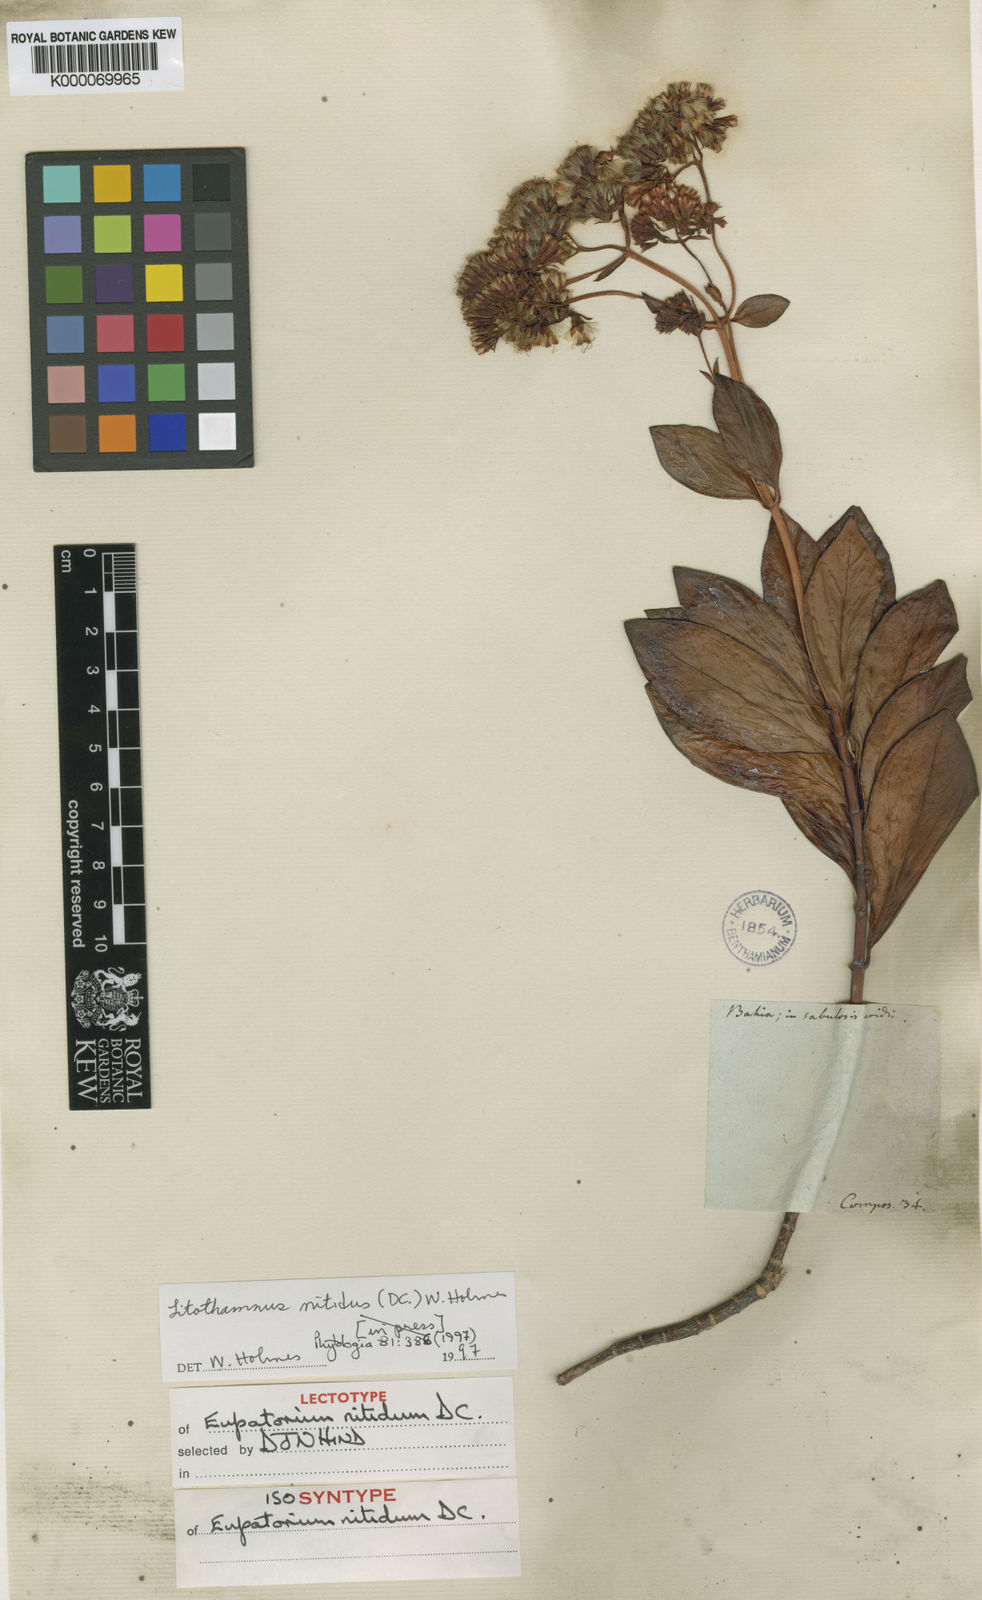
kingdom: Plantae
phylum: Tracheophyta
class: Magnoliopsida
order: Asterales
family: Asteraceae
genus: Litothamnus
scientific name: Litothamnus nitidus
